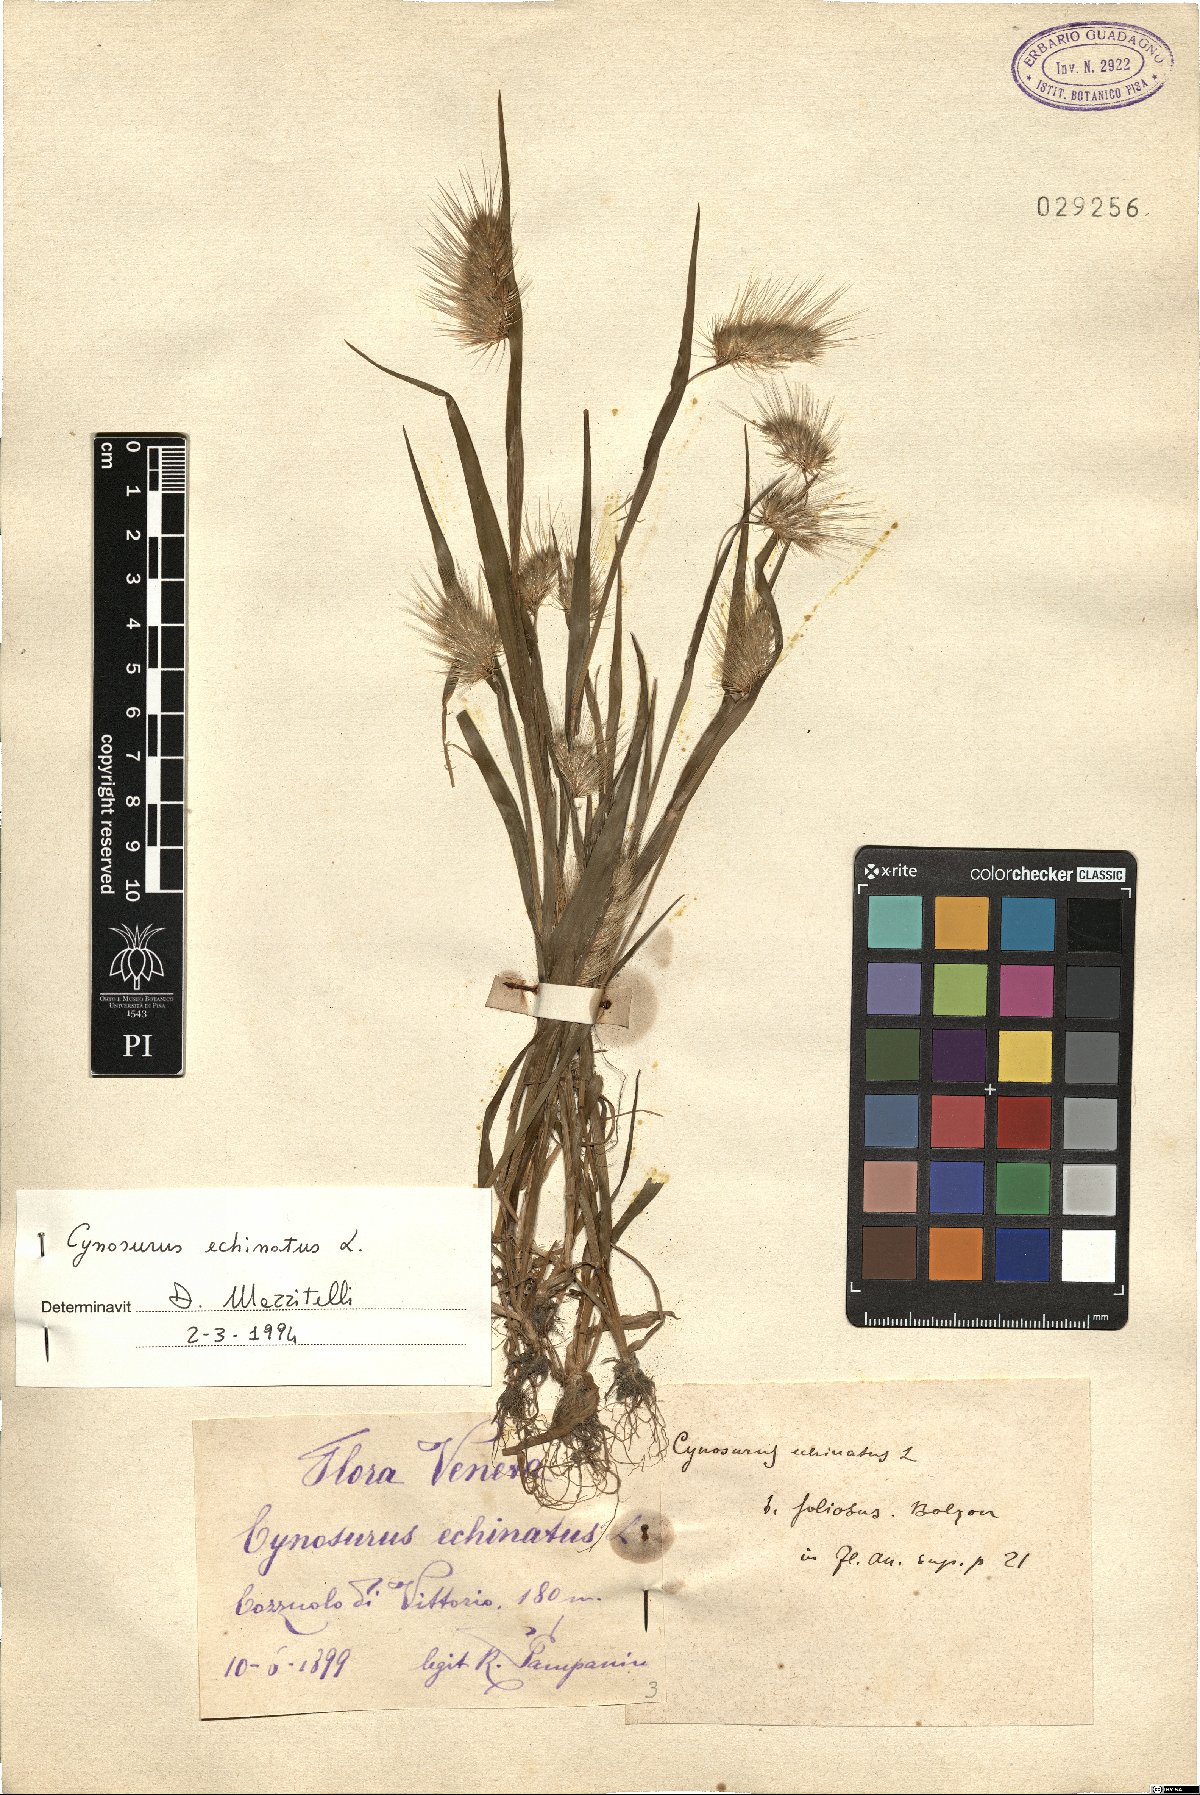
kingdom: Plantae
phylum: Tracheophyta
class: Liliopsida
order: Poales
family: Poaceae
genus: Cynosurus
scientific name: Cynosurus echinatus
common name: Rough dog's-tail
